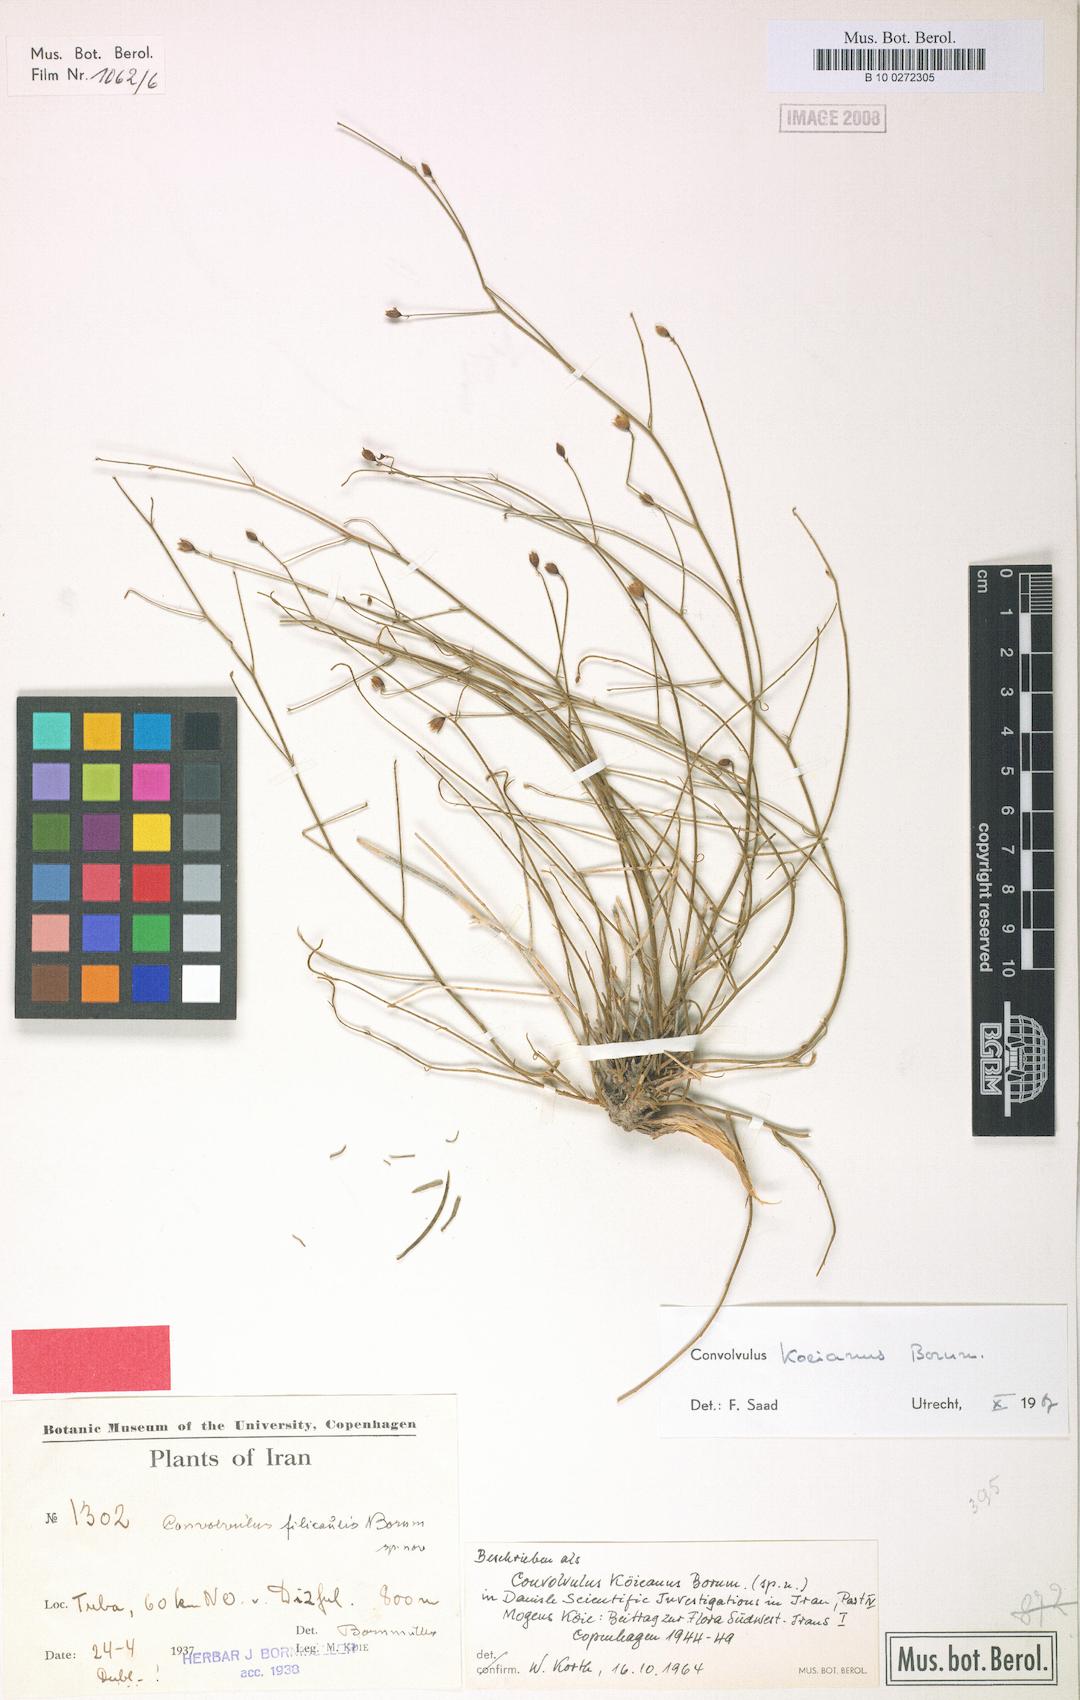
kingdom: Plantae
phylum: Tracheophyta
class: Magnoliopsida
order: Solanales
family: Convolvulaceae
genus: Convolvulus
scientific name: Convolvulus koieanus
